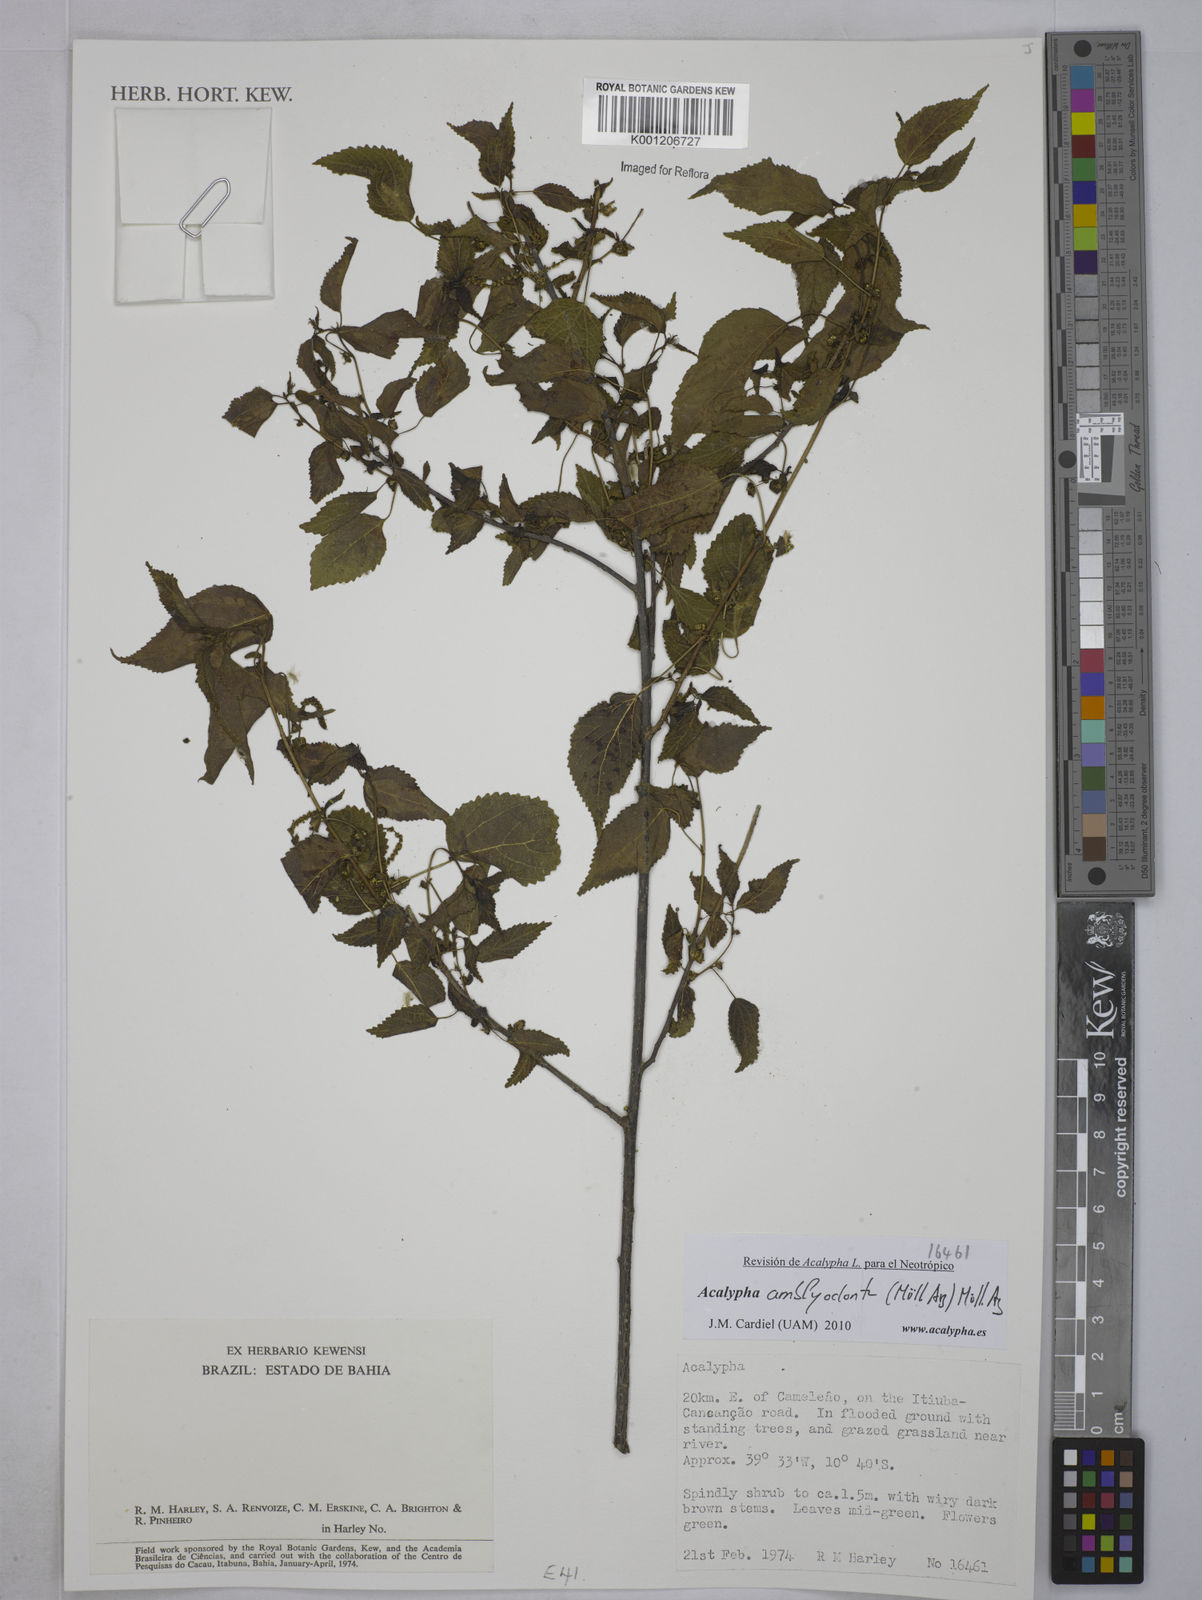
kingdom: Plantae
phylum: Tracheophyta
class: Magnoliopsida
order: Malpighiales
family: Euphorbiaceae
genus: Acalypha
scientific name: Acalypha
